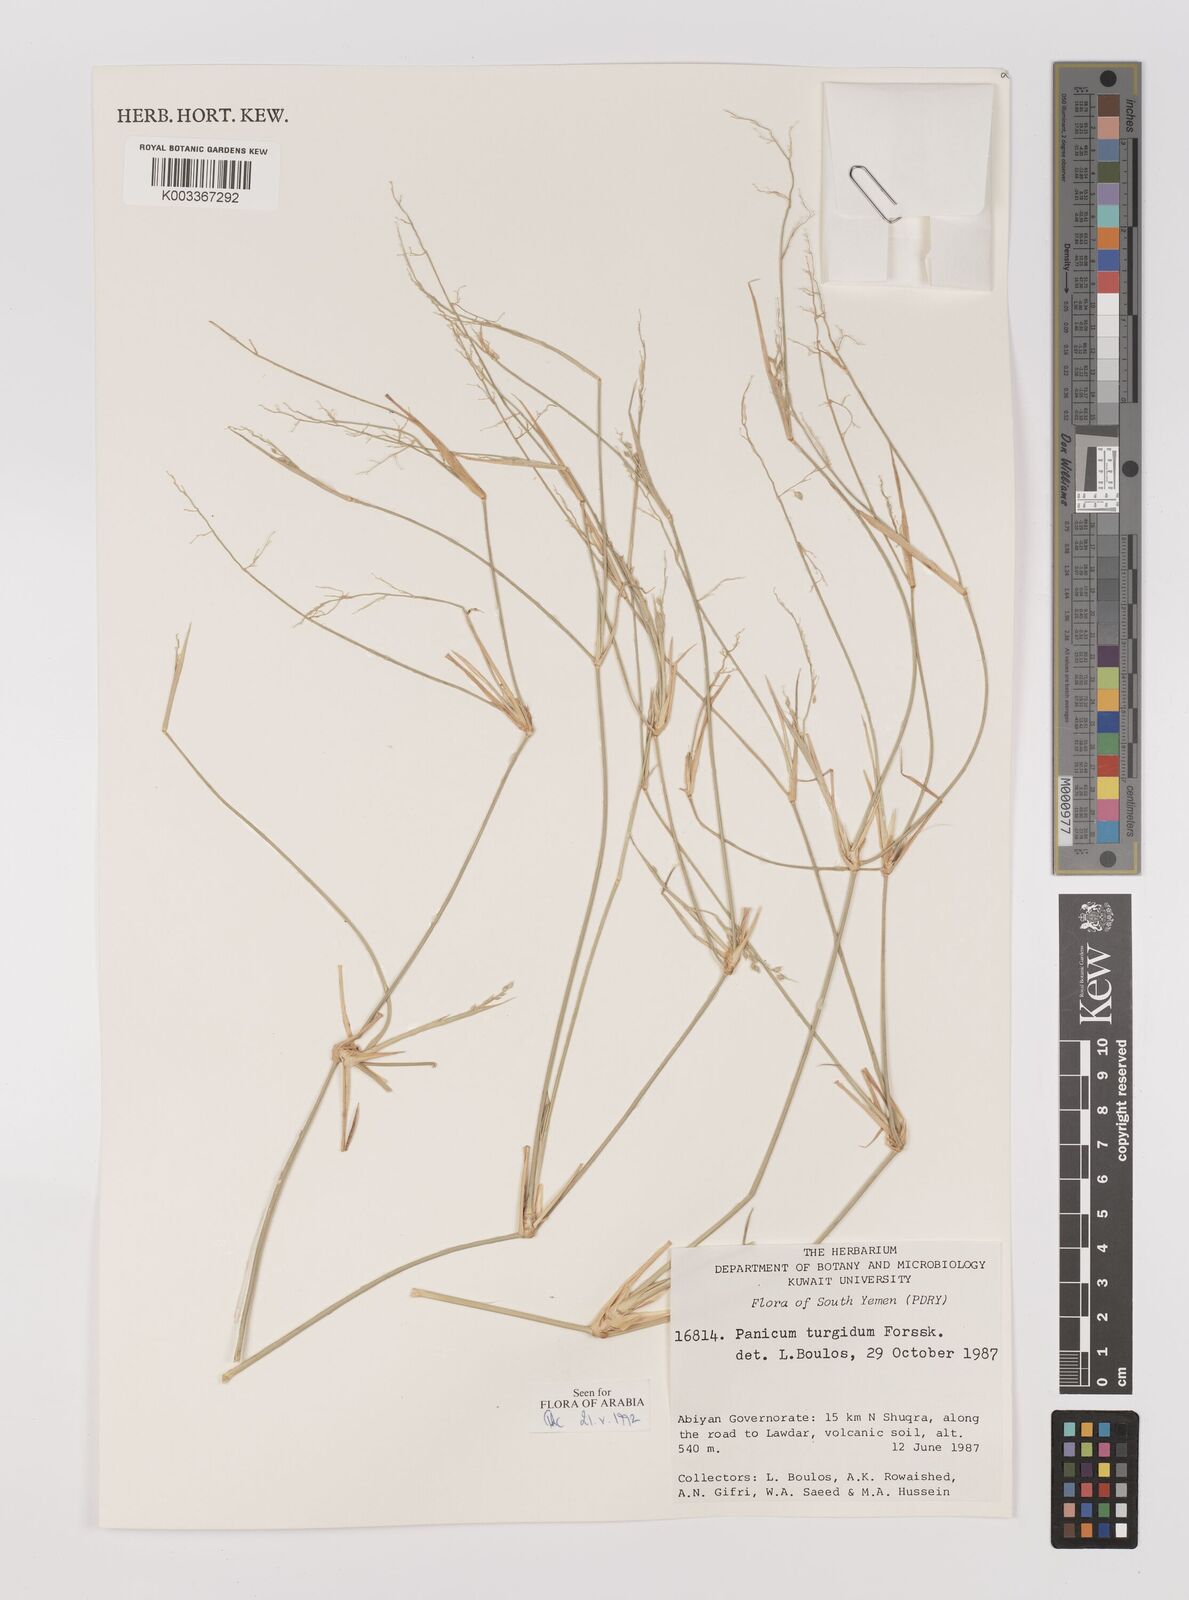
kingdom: Plantae
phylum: Tracheophyta
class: Liliopsida
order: Poales
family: Poaceae
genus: Panicum
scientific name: Panicum turgidum
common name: Desert grass
